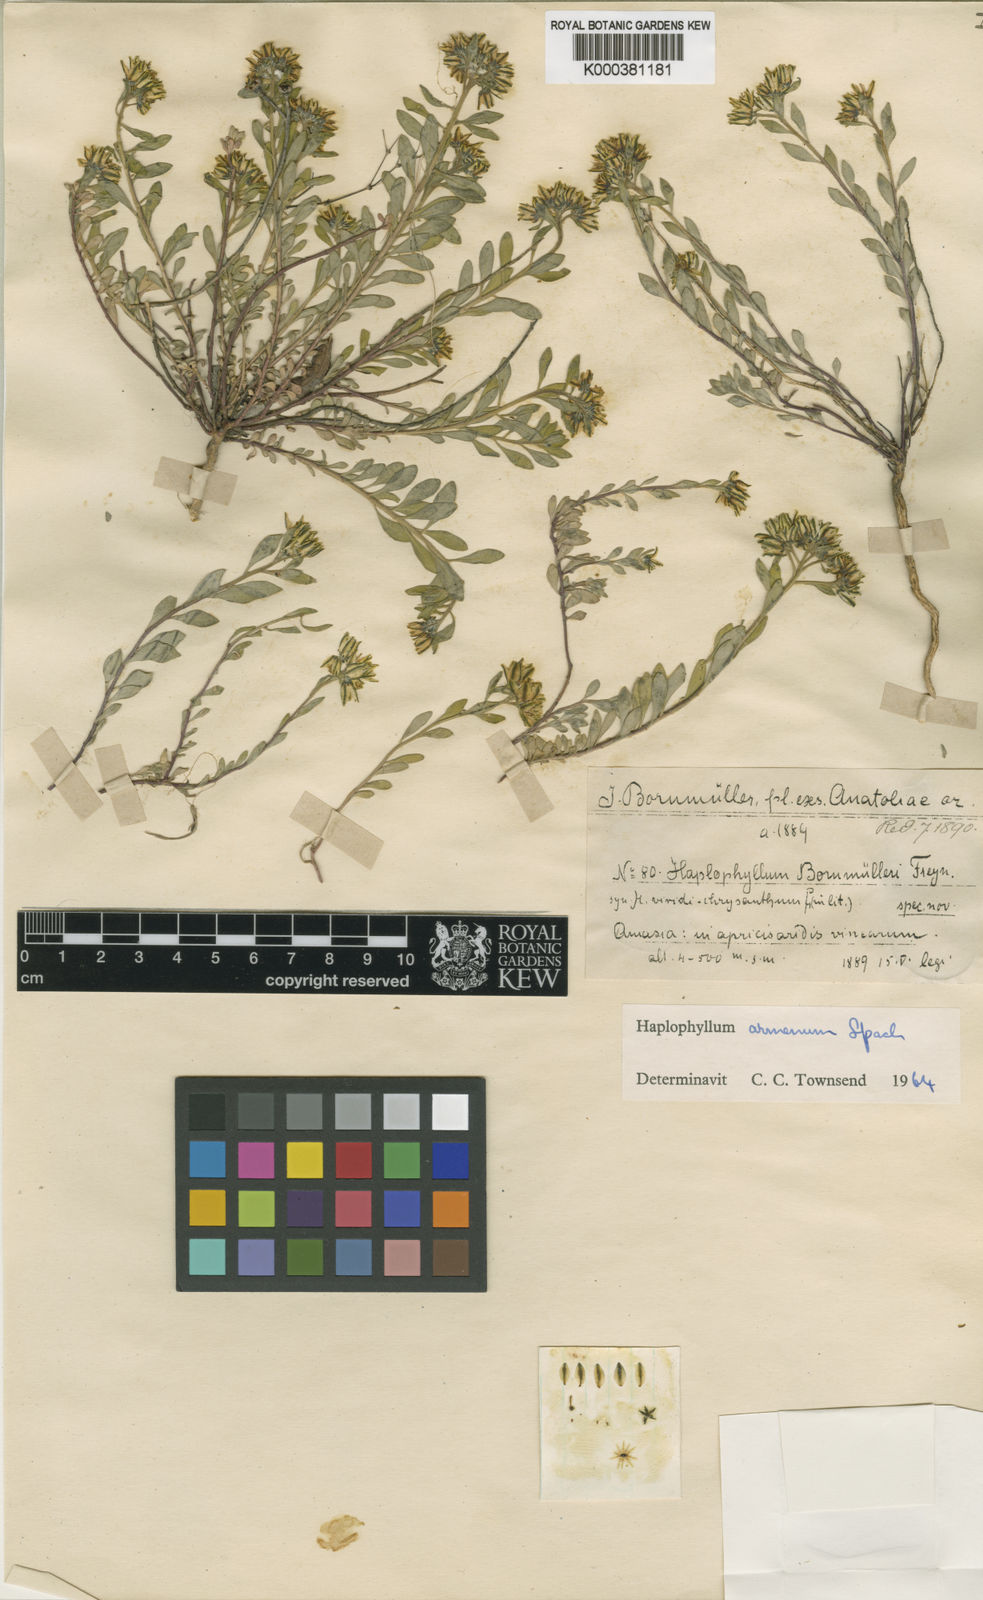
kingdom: Plantae
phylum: Tracheophyta
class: Magnoliopsida
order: Sapindales
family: Rutaceae
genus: Haplophyllum
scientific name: Haplophyllum armenum
